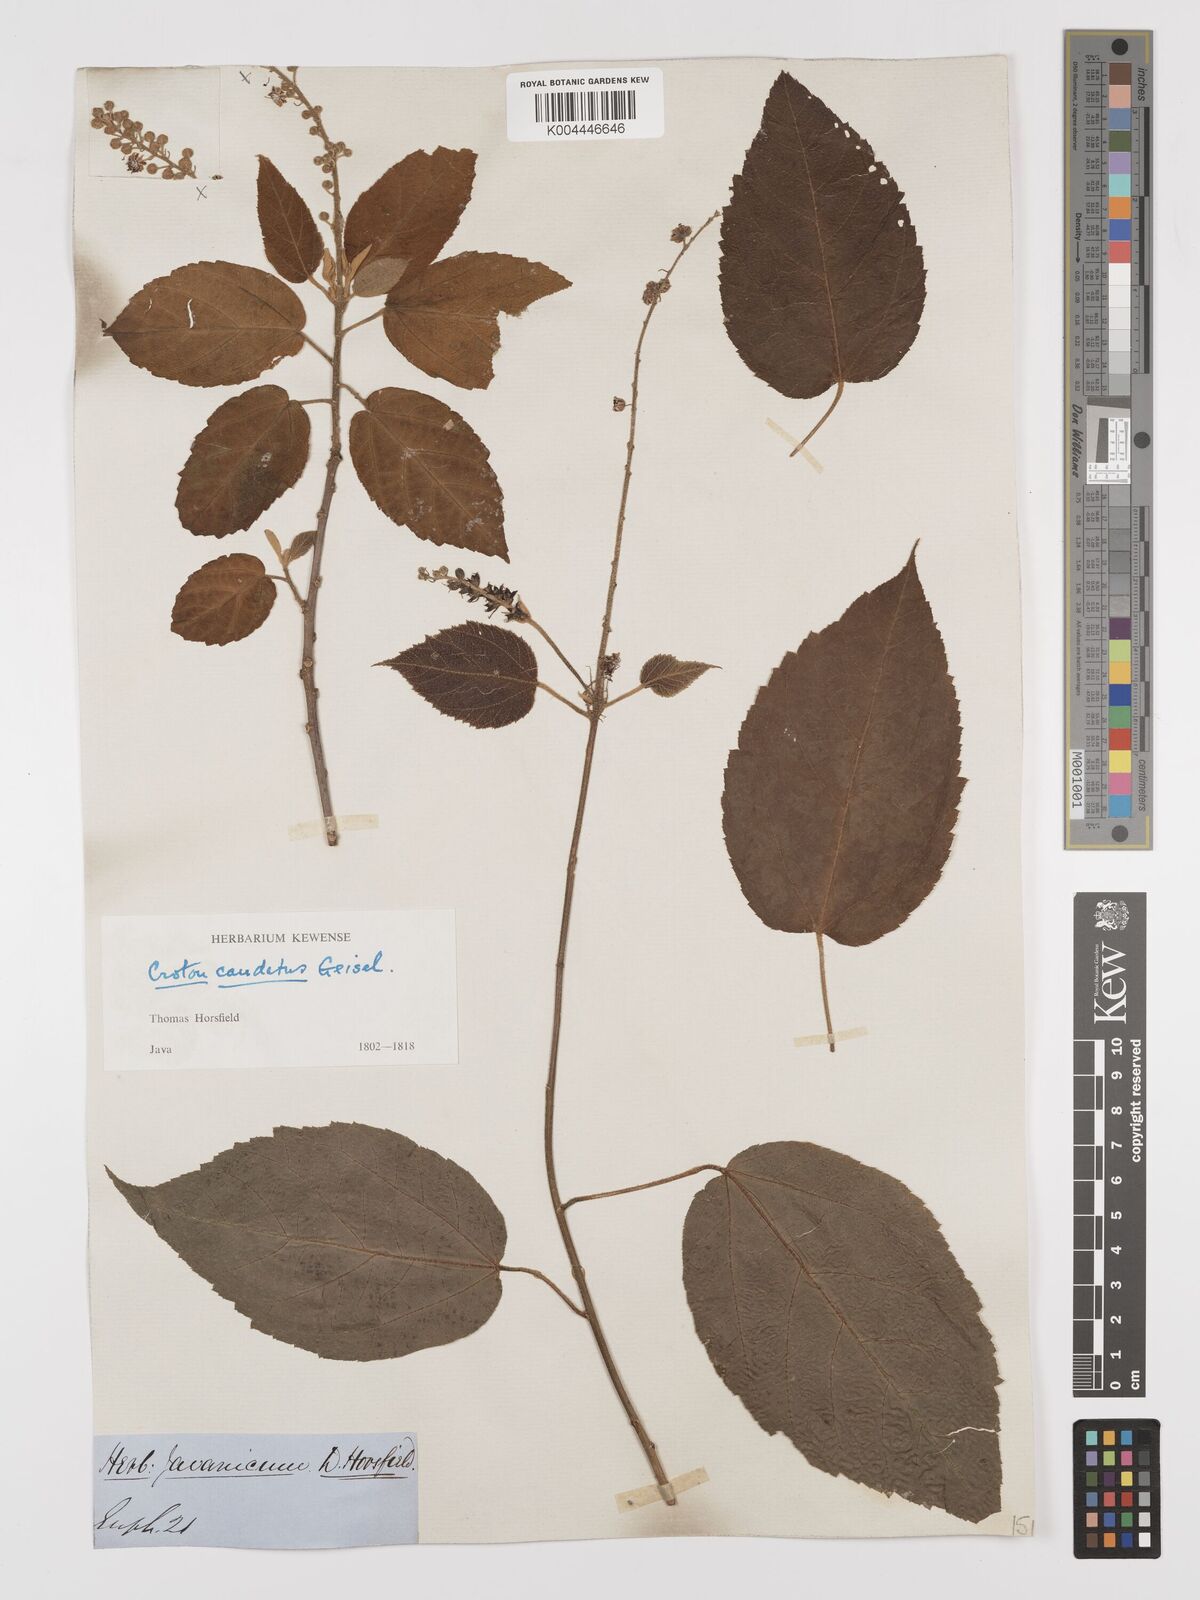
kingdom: Plantae
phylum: Tracheophyta
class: Magnoliopsida
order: Malpighiales
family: Euphorbiaceae
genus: Croton
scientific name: Croton caudatus
